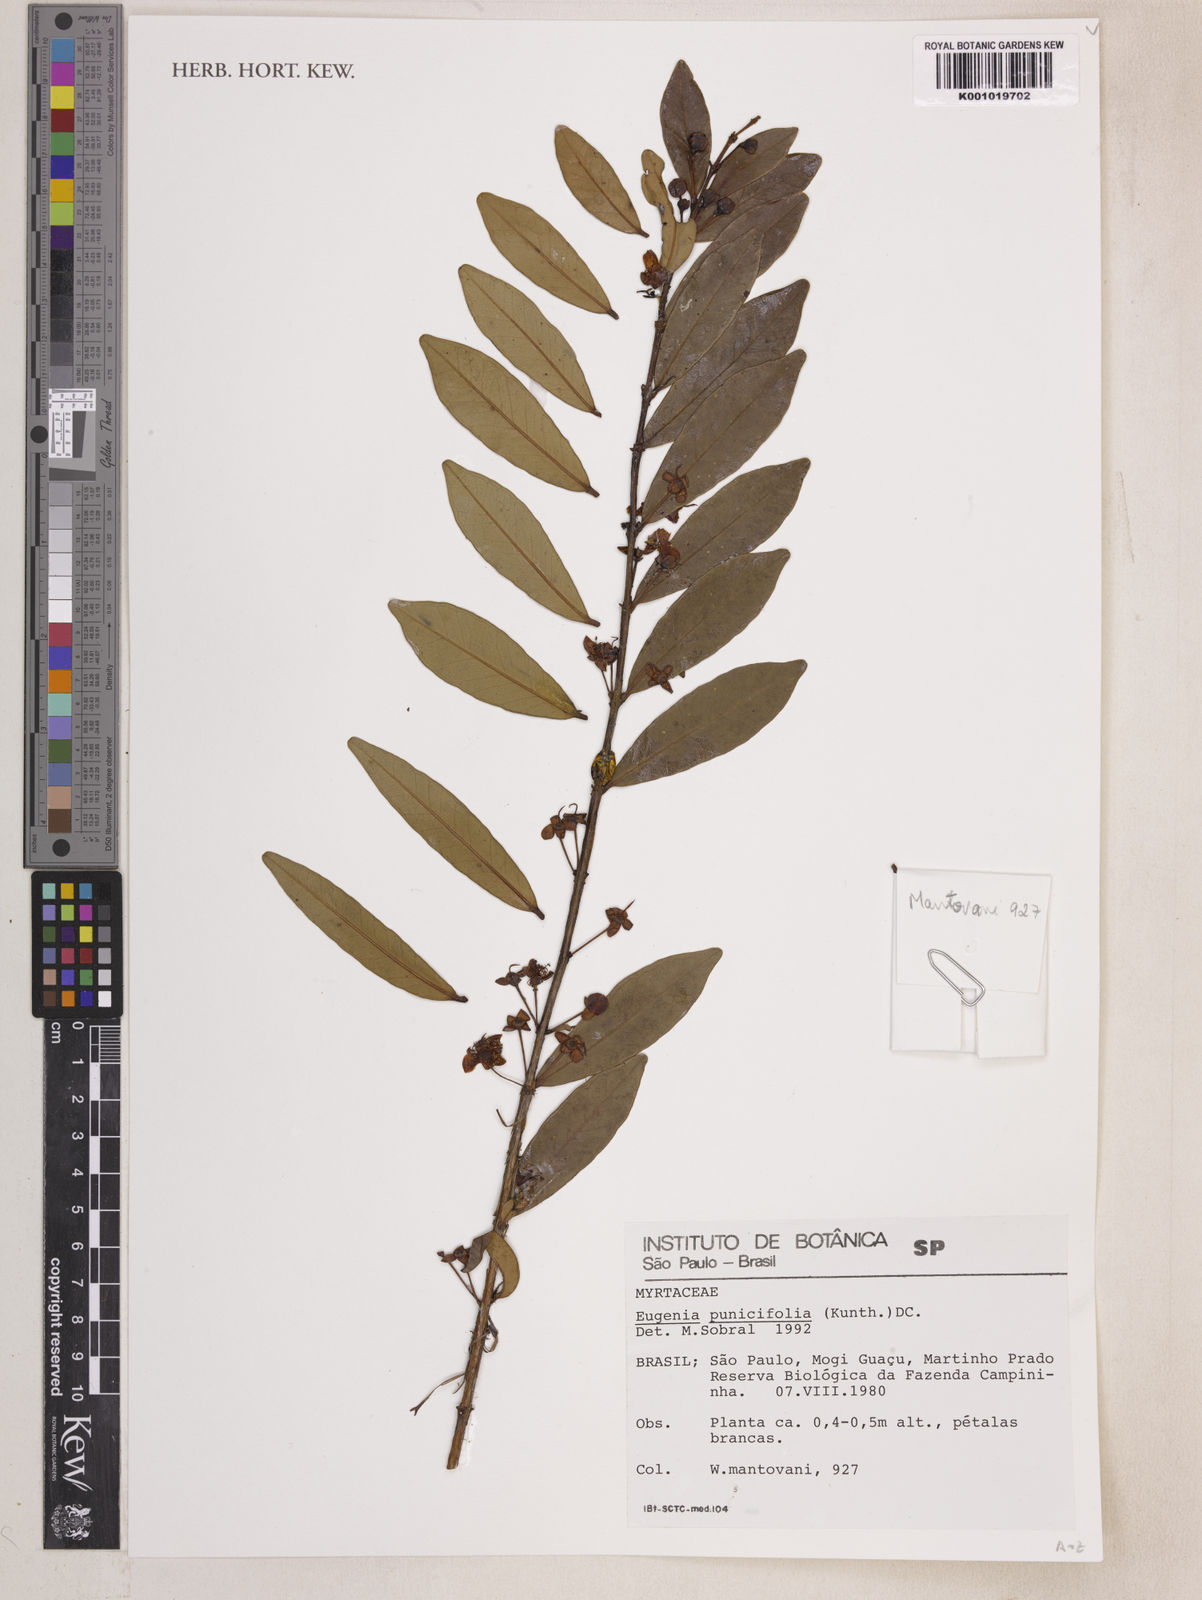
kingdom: Plantae
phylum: Tracheophyta
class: Magnoliopsida
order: Myrtales
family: Myrtaceae
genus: Eugenia
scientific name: Eugenia punicifolia
